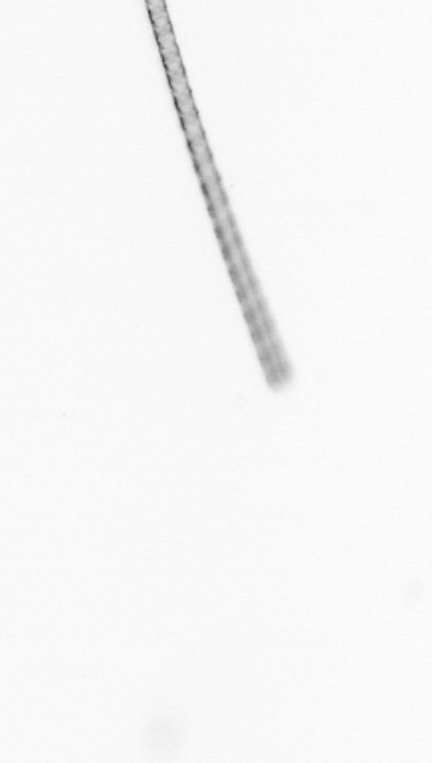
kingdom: Chromista
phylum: Ochrophyta
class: Bacillariophyceae
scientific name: Bacillariophyceae
